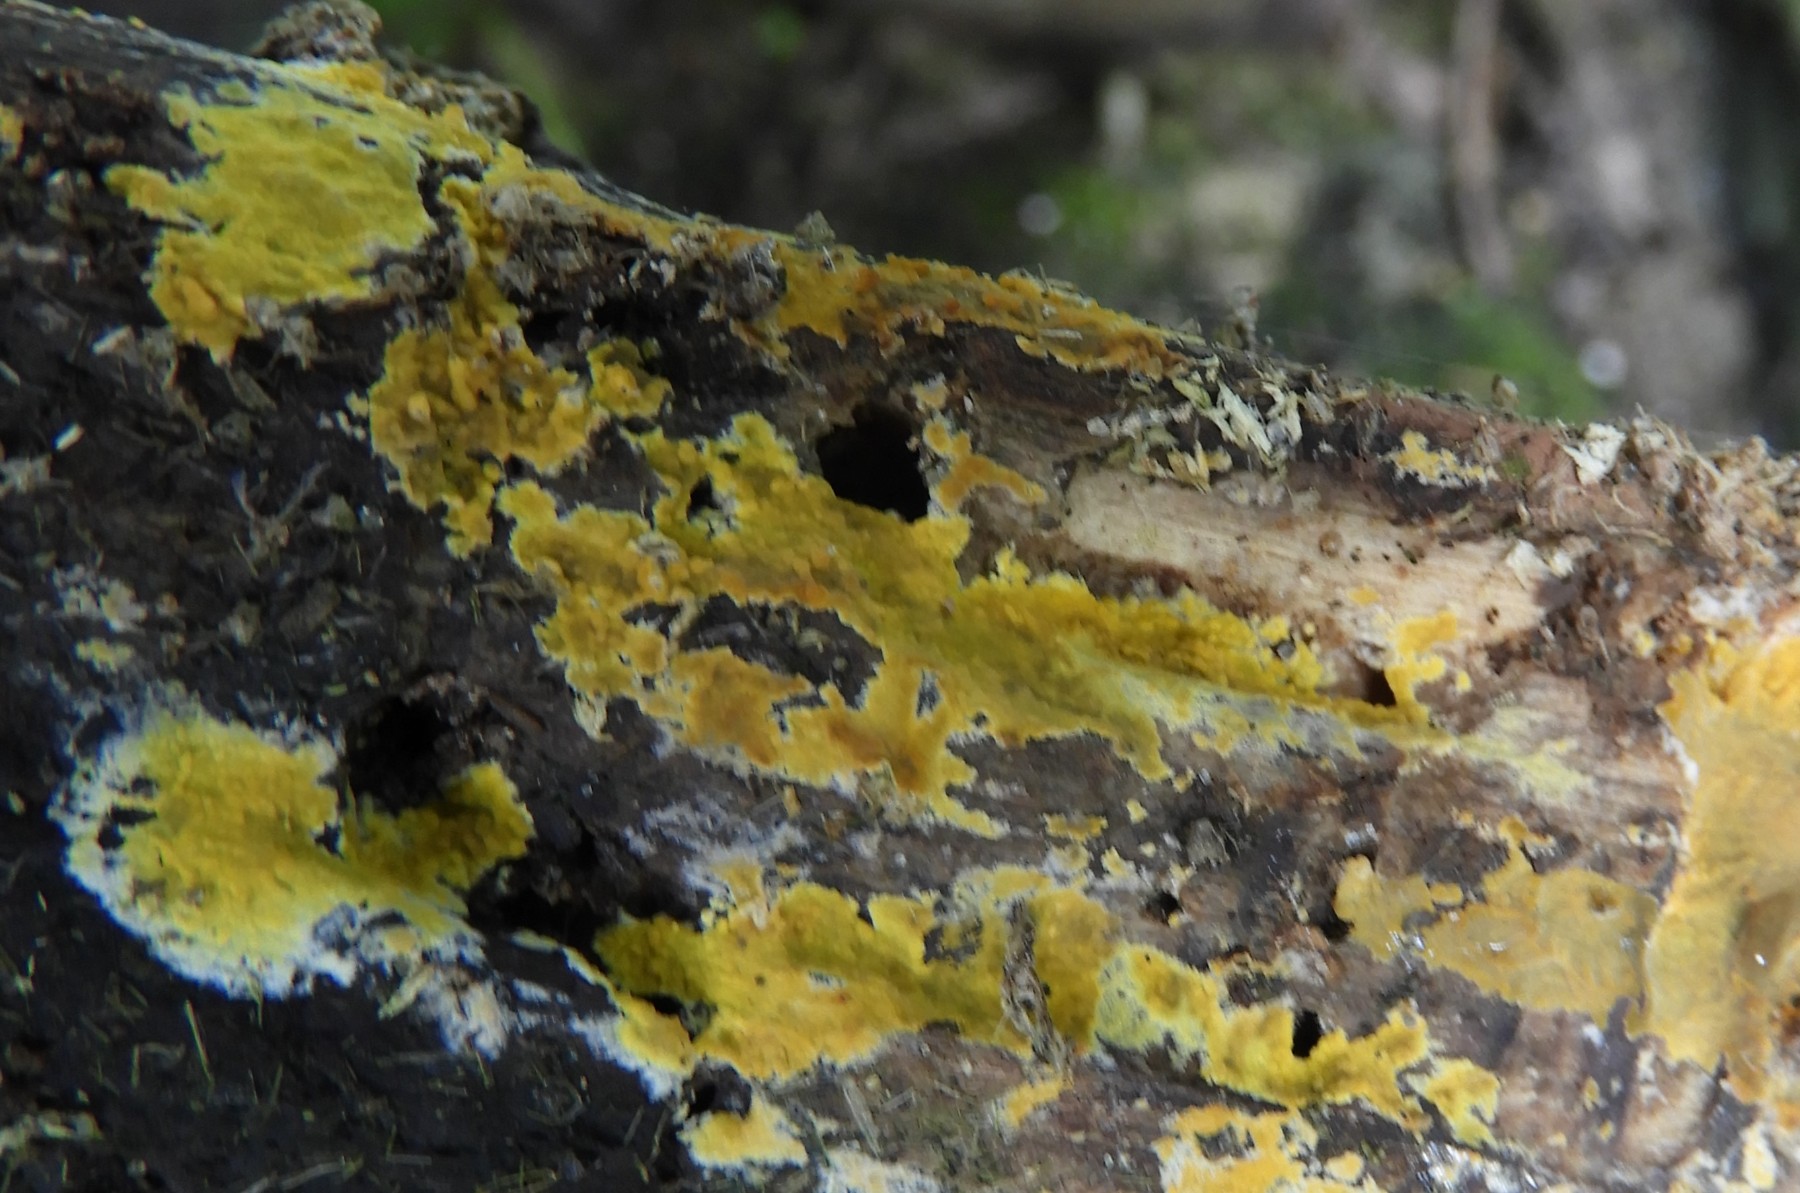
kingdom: Fungi
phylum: Basidiomycota
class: Agaricomycetes
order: Polyporales
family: Meruliaceae
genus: Phlebiodontia
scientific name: Phlebiodontia subochracea
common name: svovl-åresvamp
